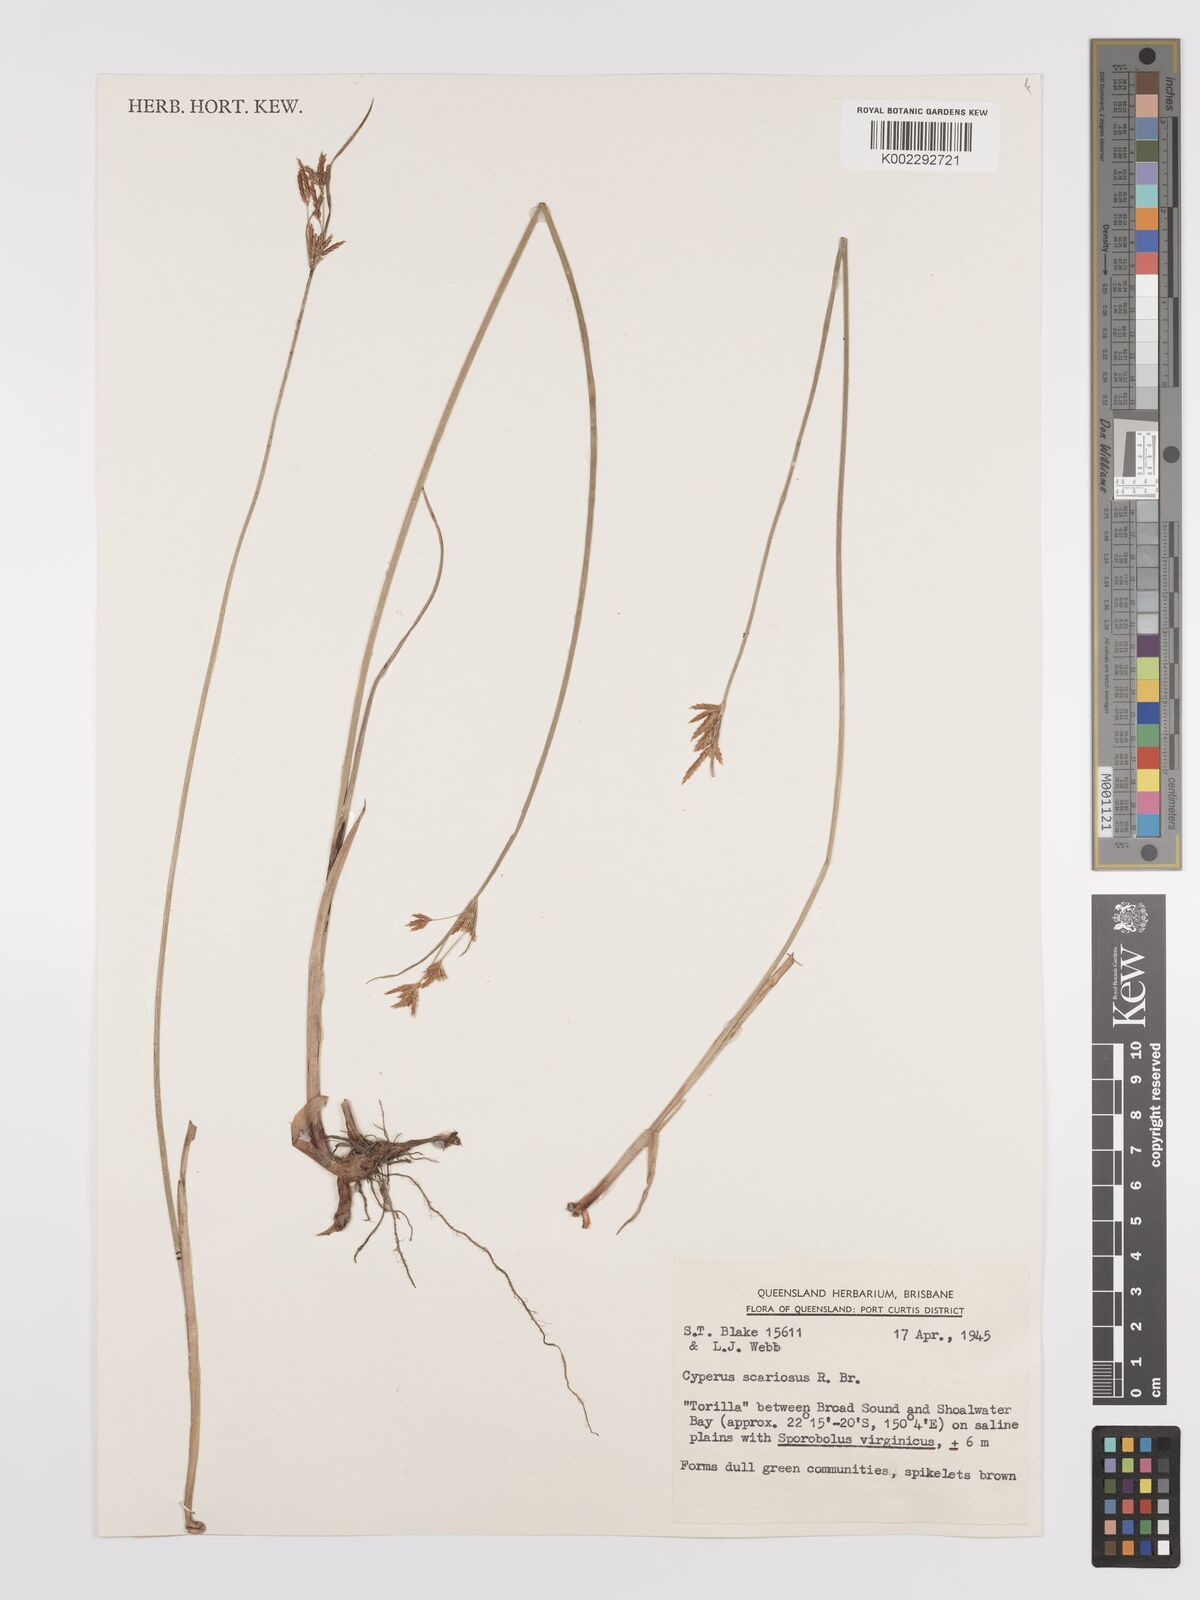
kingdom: Plantae
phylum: Tracheophyta
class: Liliopsida
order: Poales
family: Cyperaceae
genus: Cyperus
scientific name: Cyperus scariosus
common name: Cypriol
